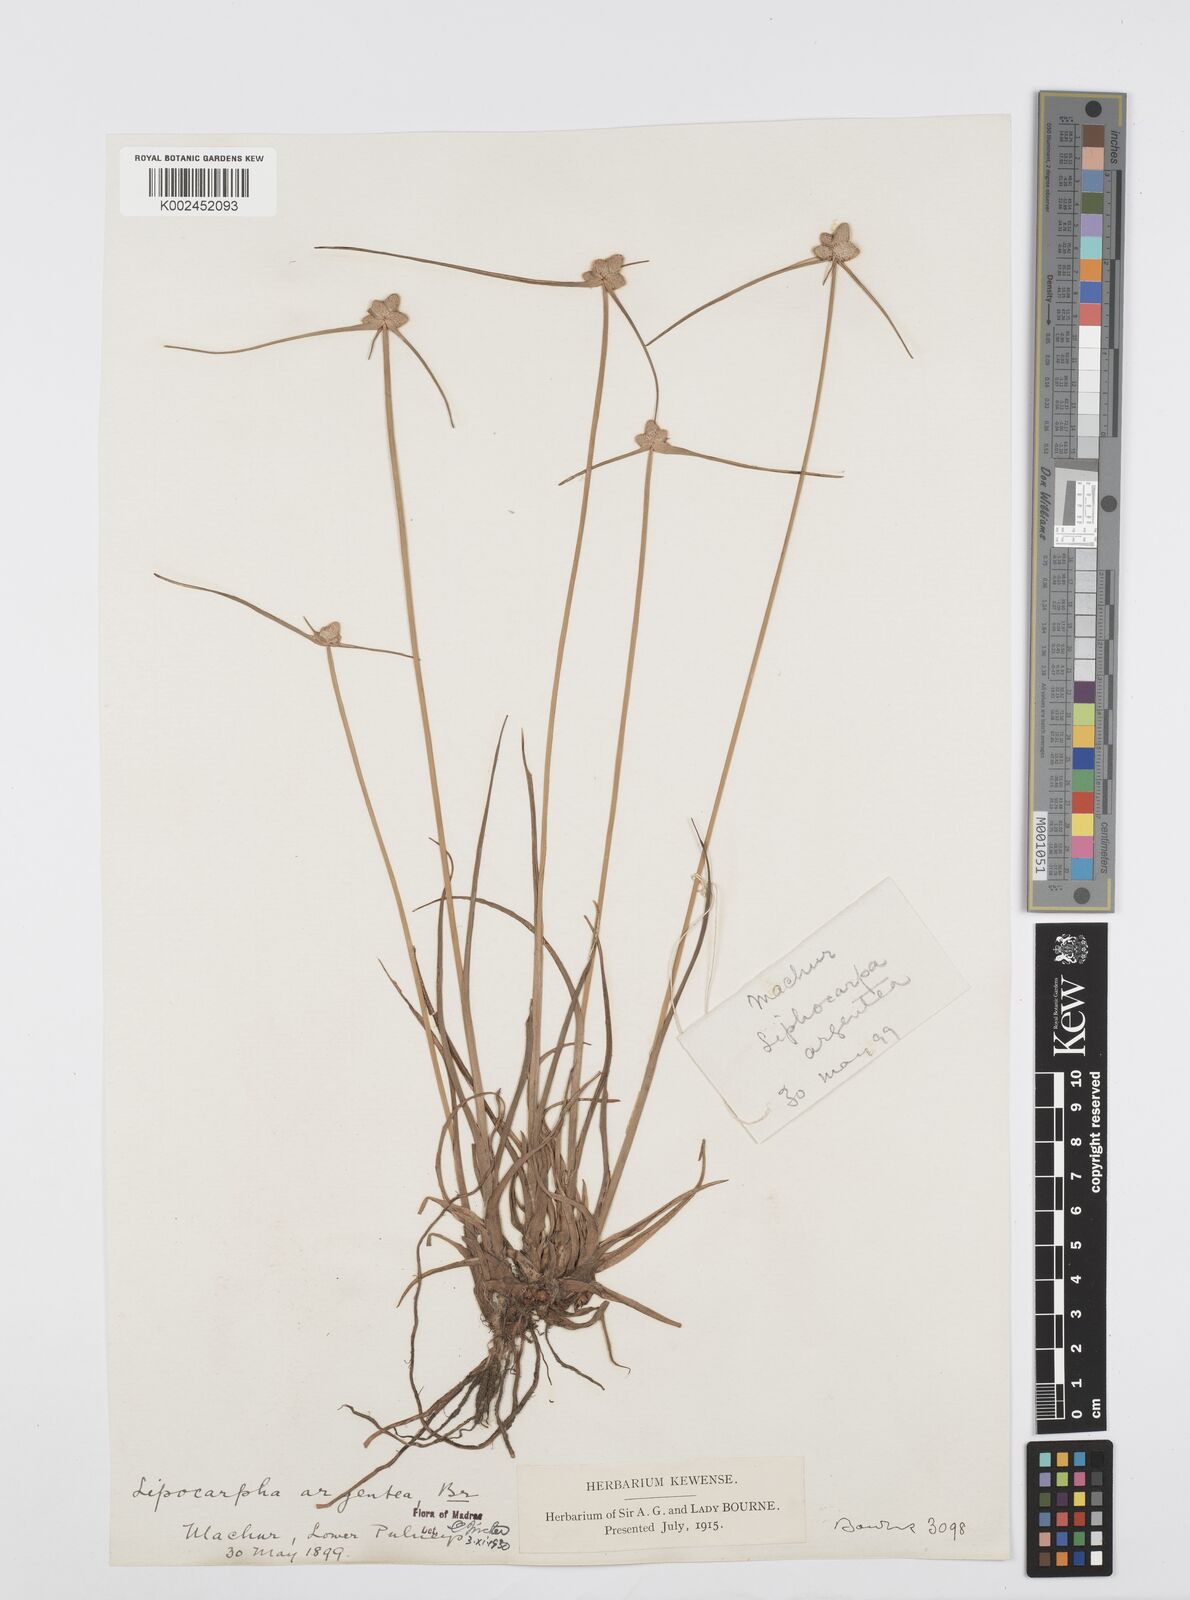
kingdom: Plantae
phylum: Tracheophyta
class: Liliopsida
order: Poales
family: Cyperaceae
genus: Cyperus
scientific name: Cyperus
